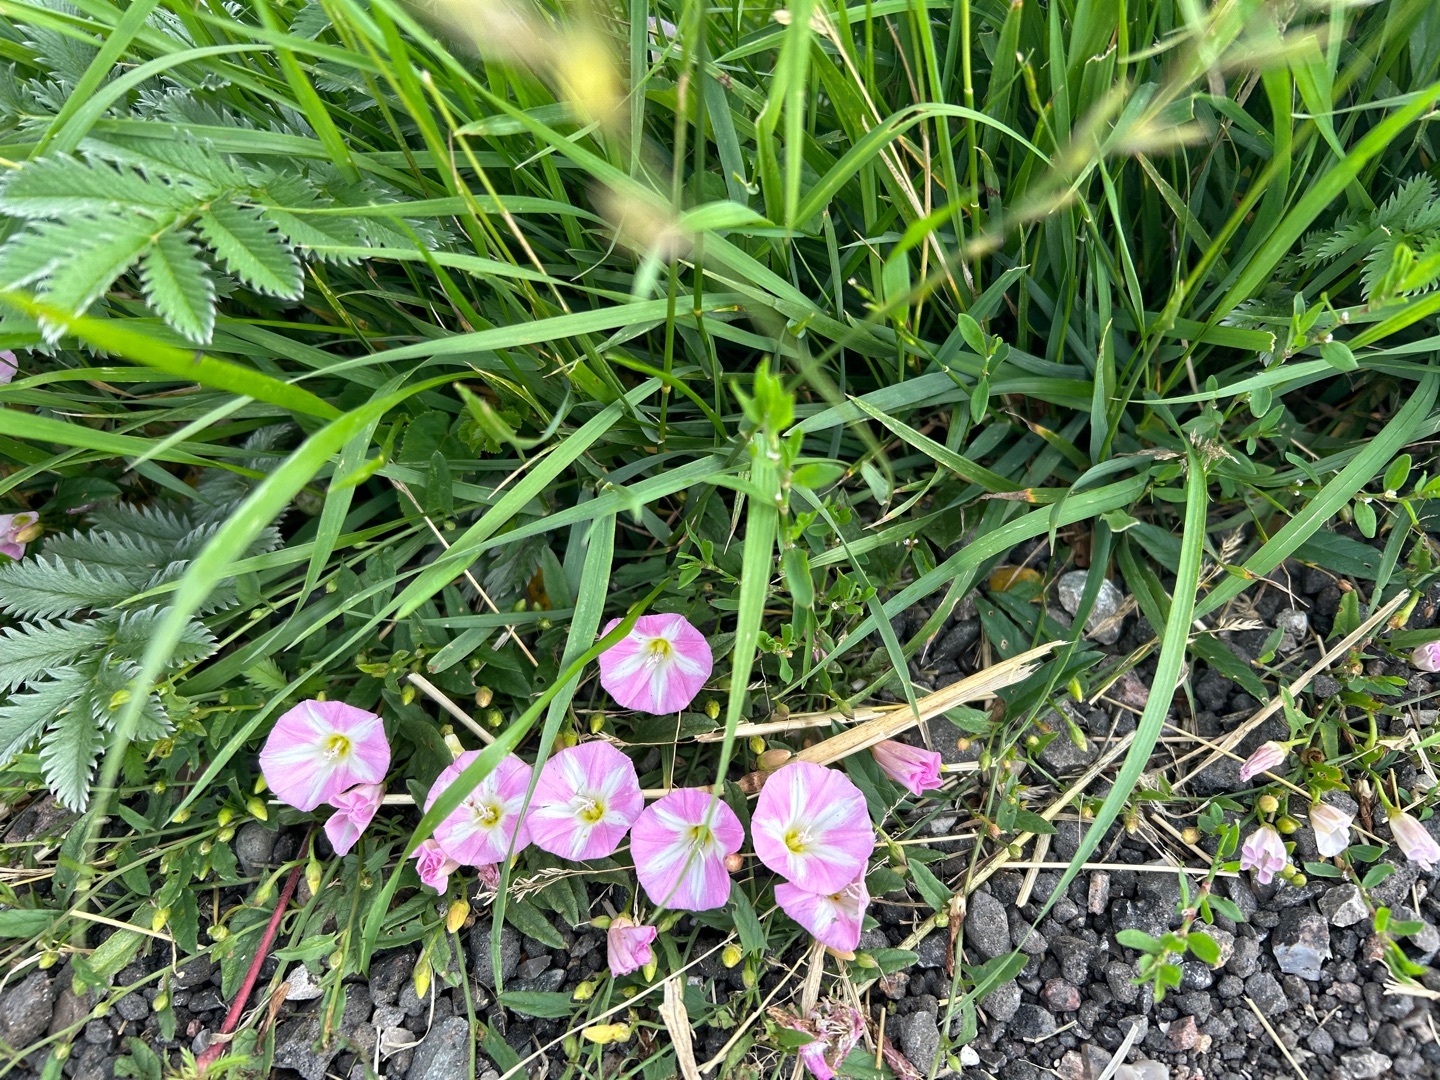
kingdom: Plantae
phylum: Tracheophyta
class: Magnoliopsida
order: Solanales
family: Convolvulaceae
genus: Convolvulus
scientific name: Convolvulus arvensis
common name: Ager-snerle
